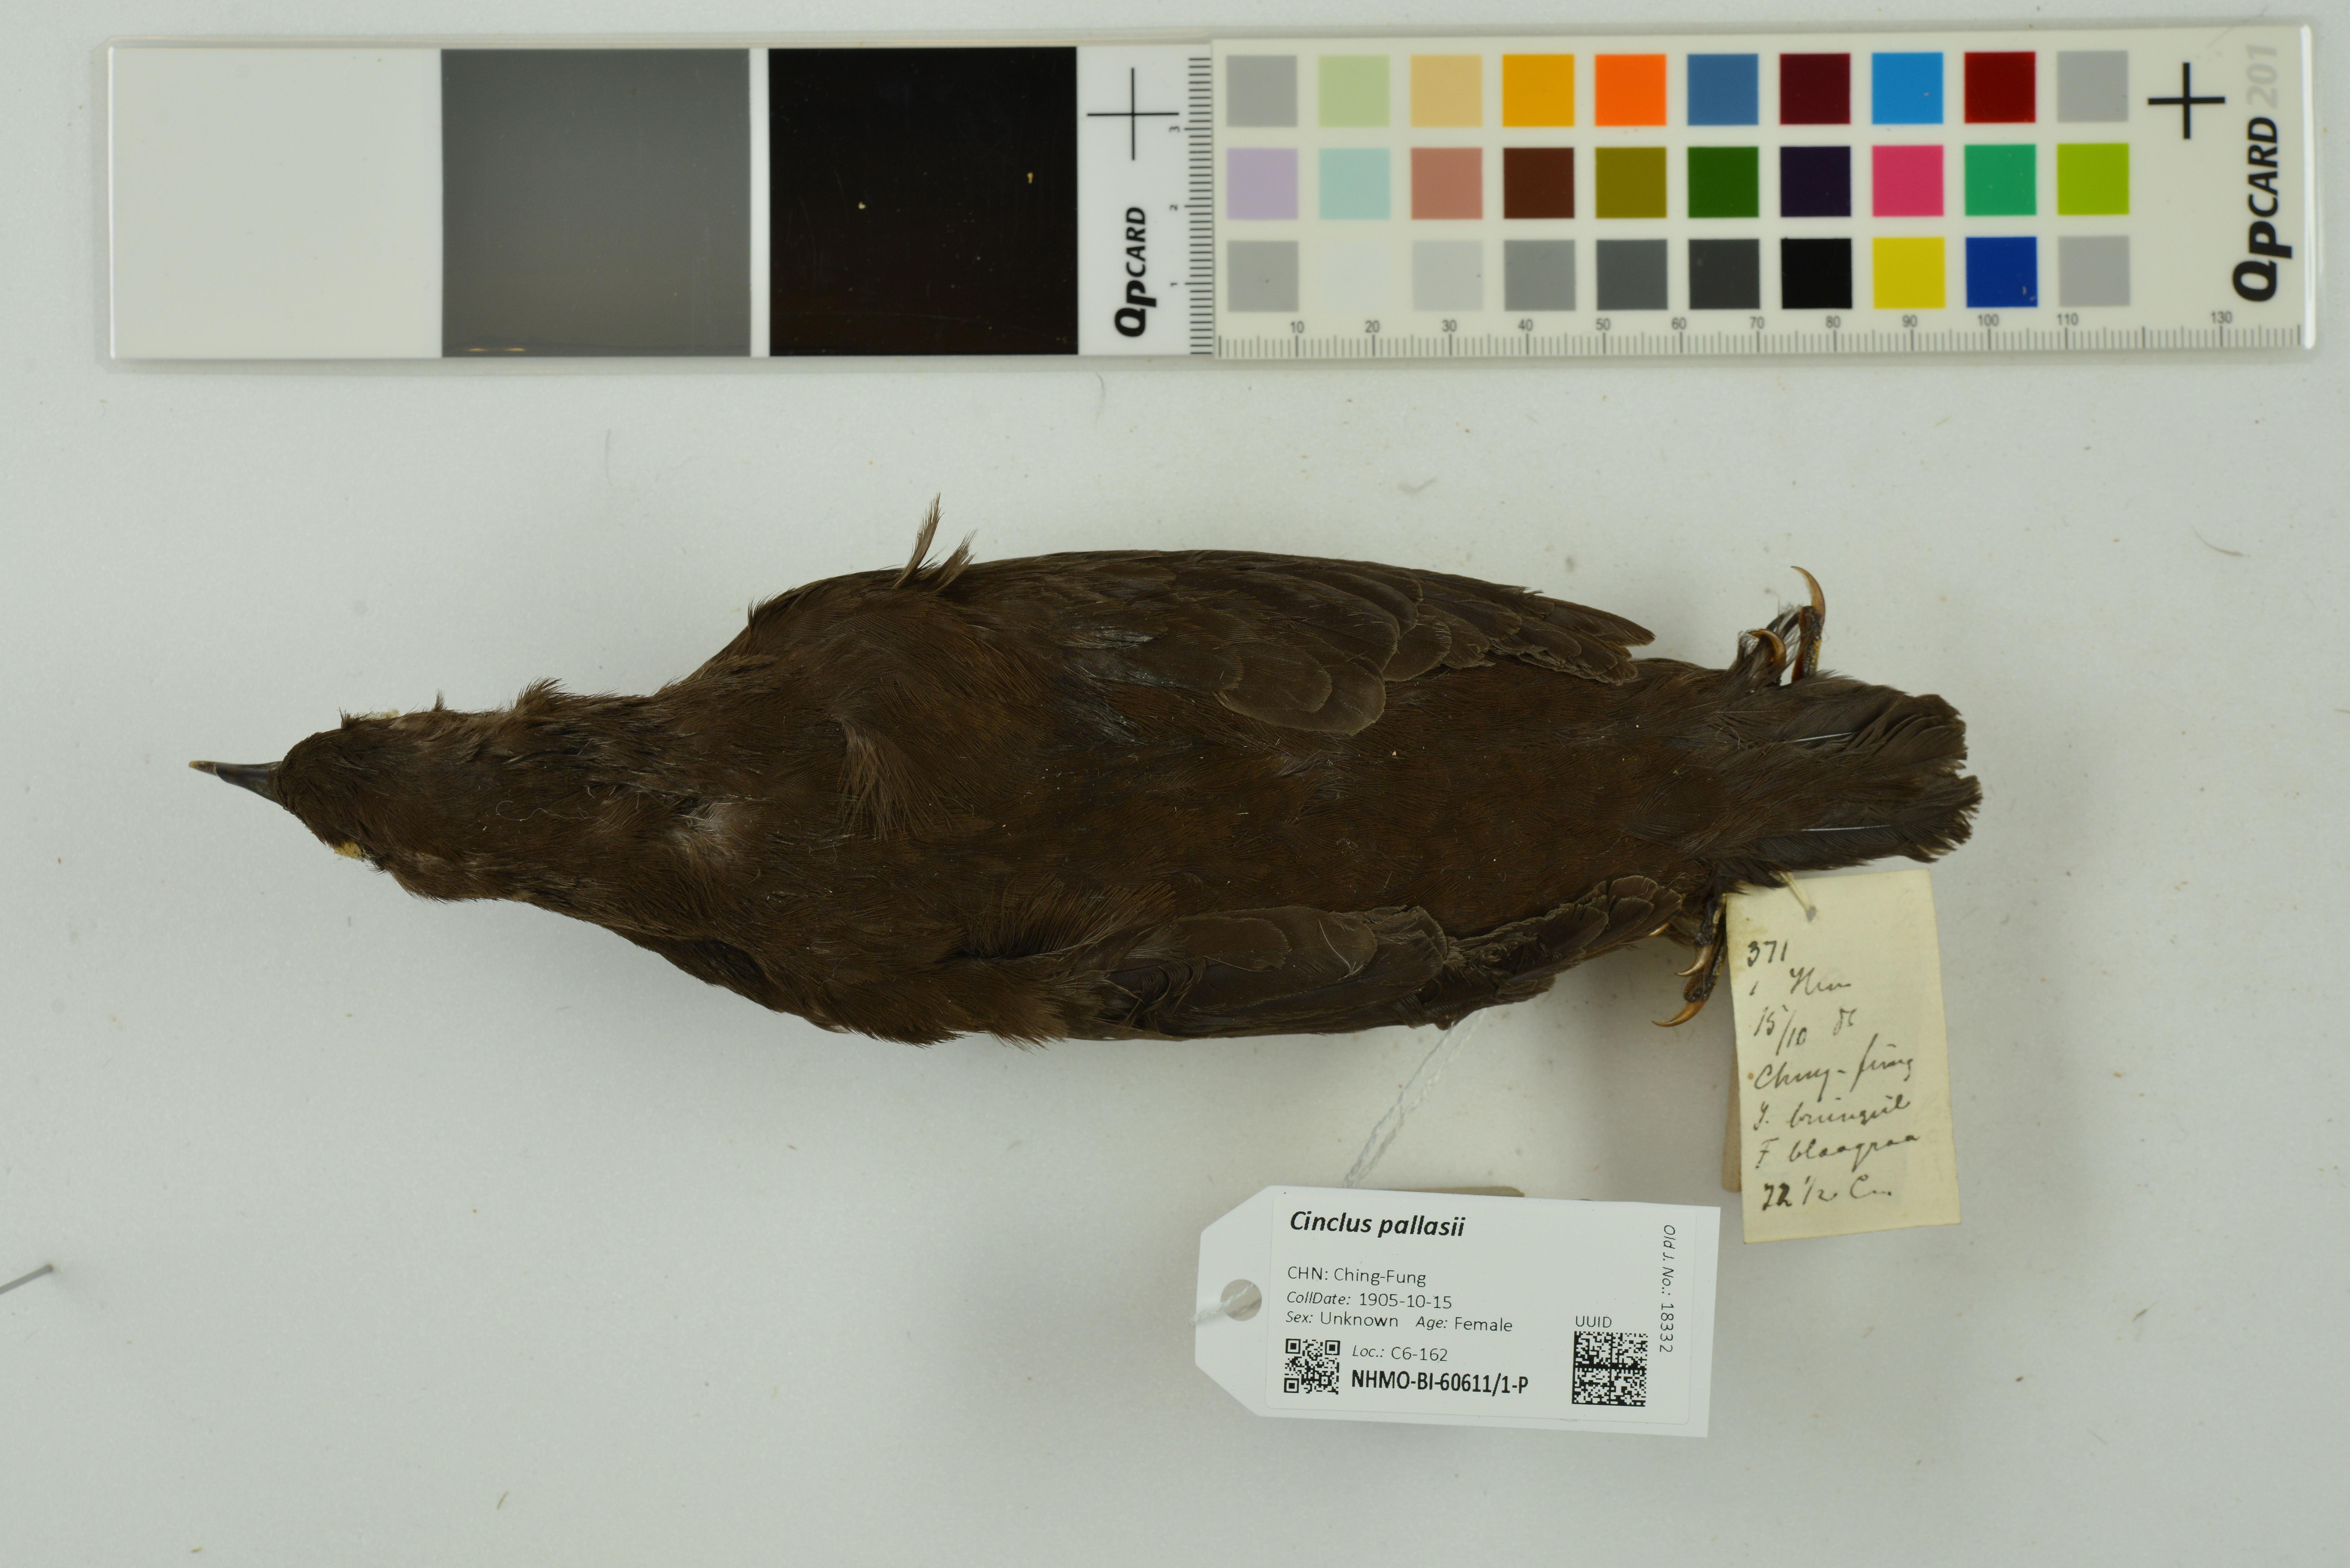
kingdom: Animalia
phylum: Chordata
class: Aves
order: Passeriformes
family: Cinclidae
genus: Cinclus
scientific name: Cinclus pallasii
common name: Brown dipper
